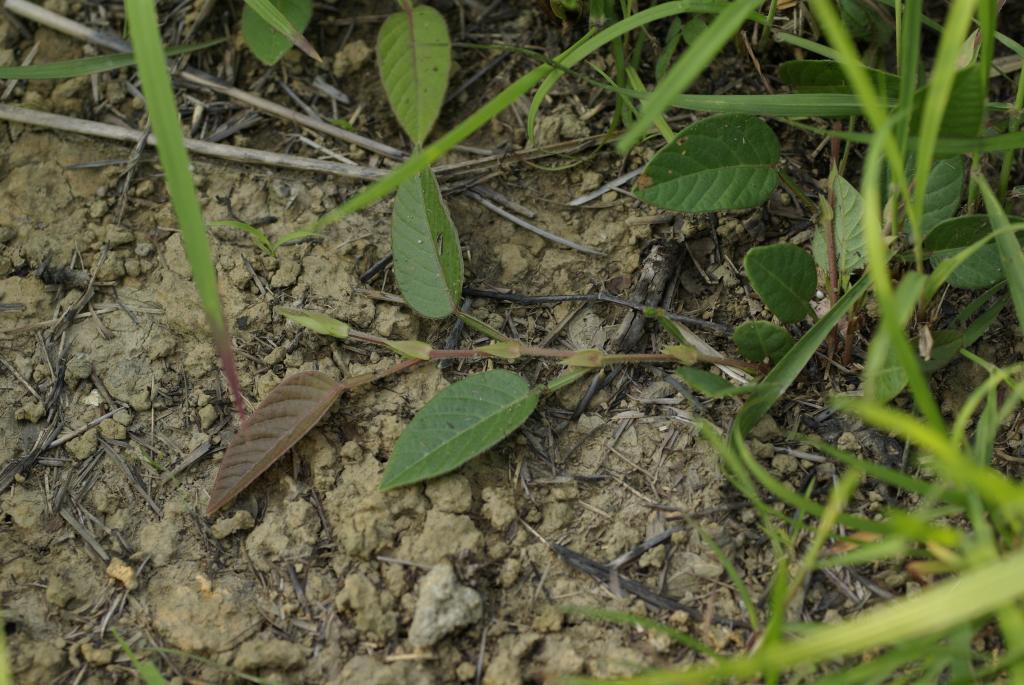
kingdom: Plantae
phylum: Tracheophyta
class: Magnoliopsida
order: Fabales
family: Fabaceae
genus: Tadehagi
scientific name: Tadehagi pseudotriquetrum
